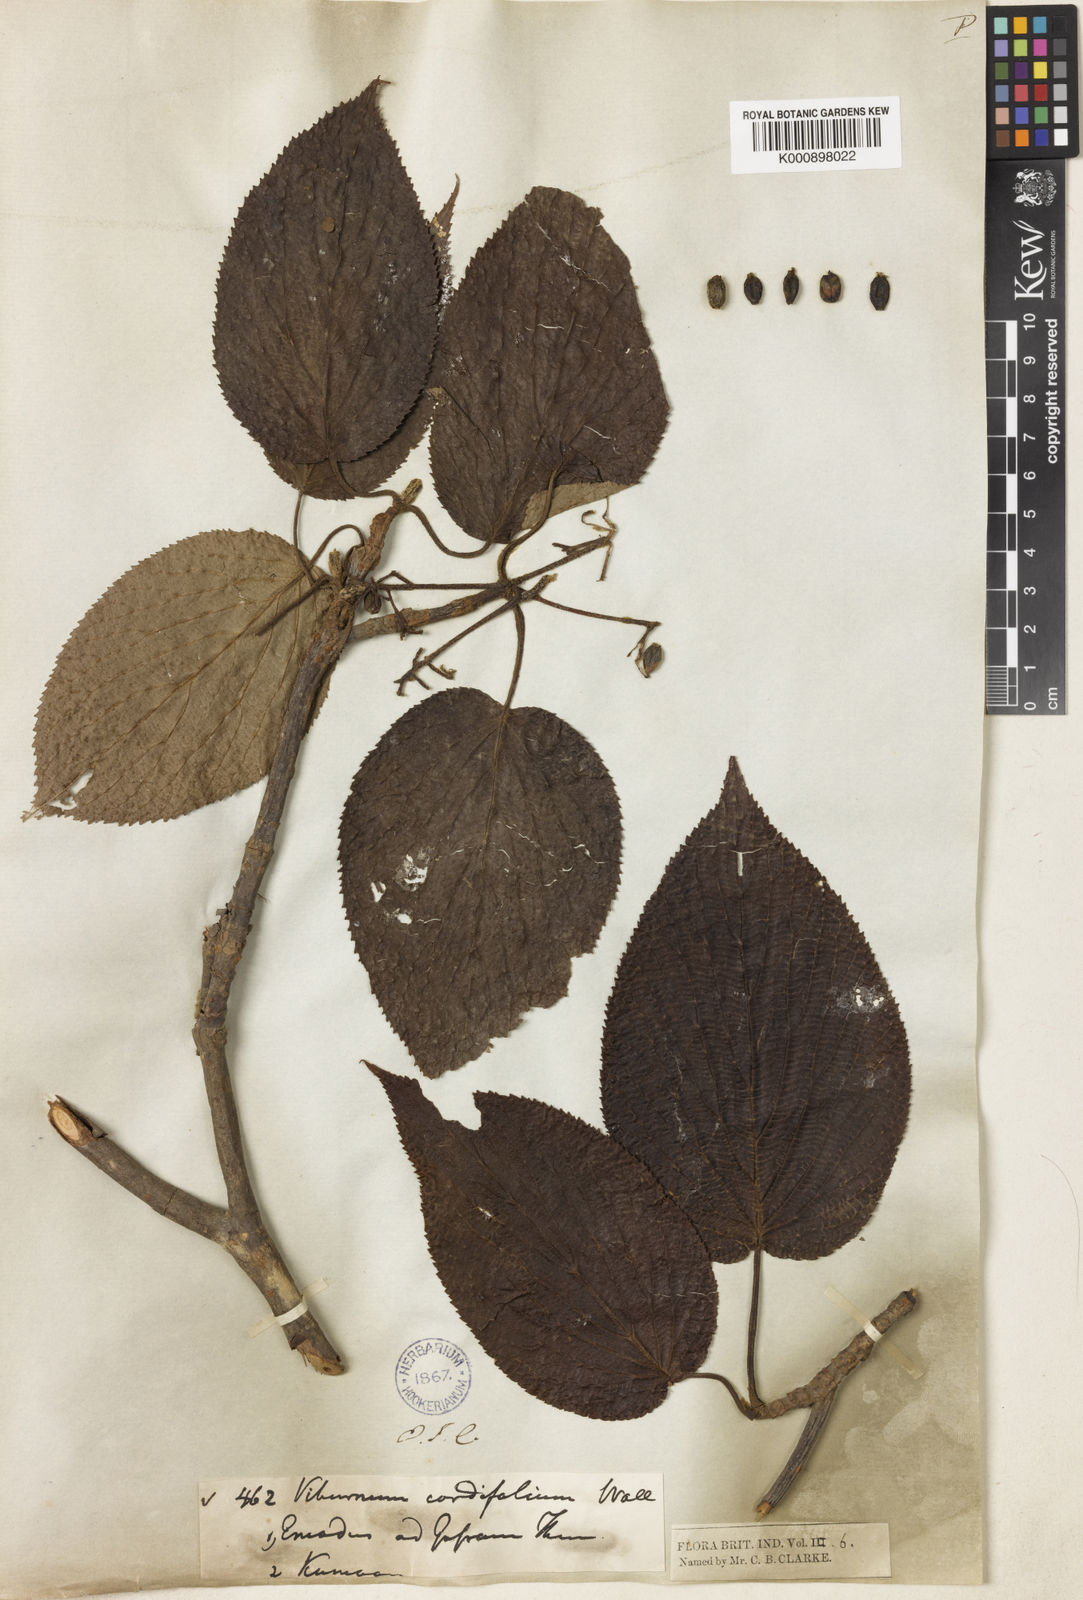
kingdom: Plantae
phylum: Tracheophyta
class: Magnoliopsida
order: Dipsacales
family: Viburnaceae
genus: Viburnum
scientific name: Viburnum nervosum
